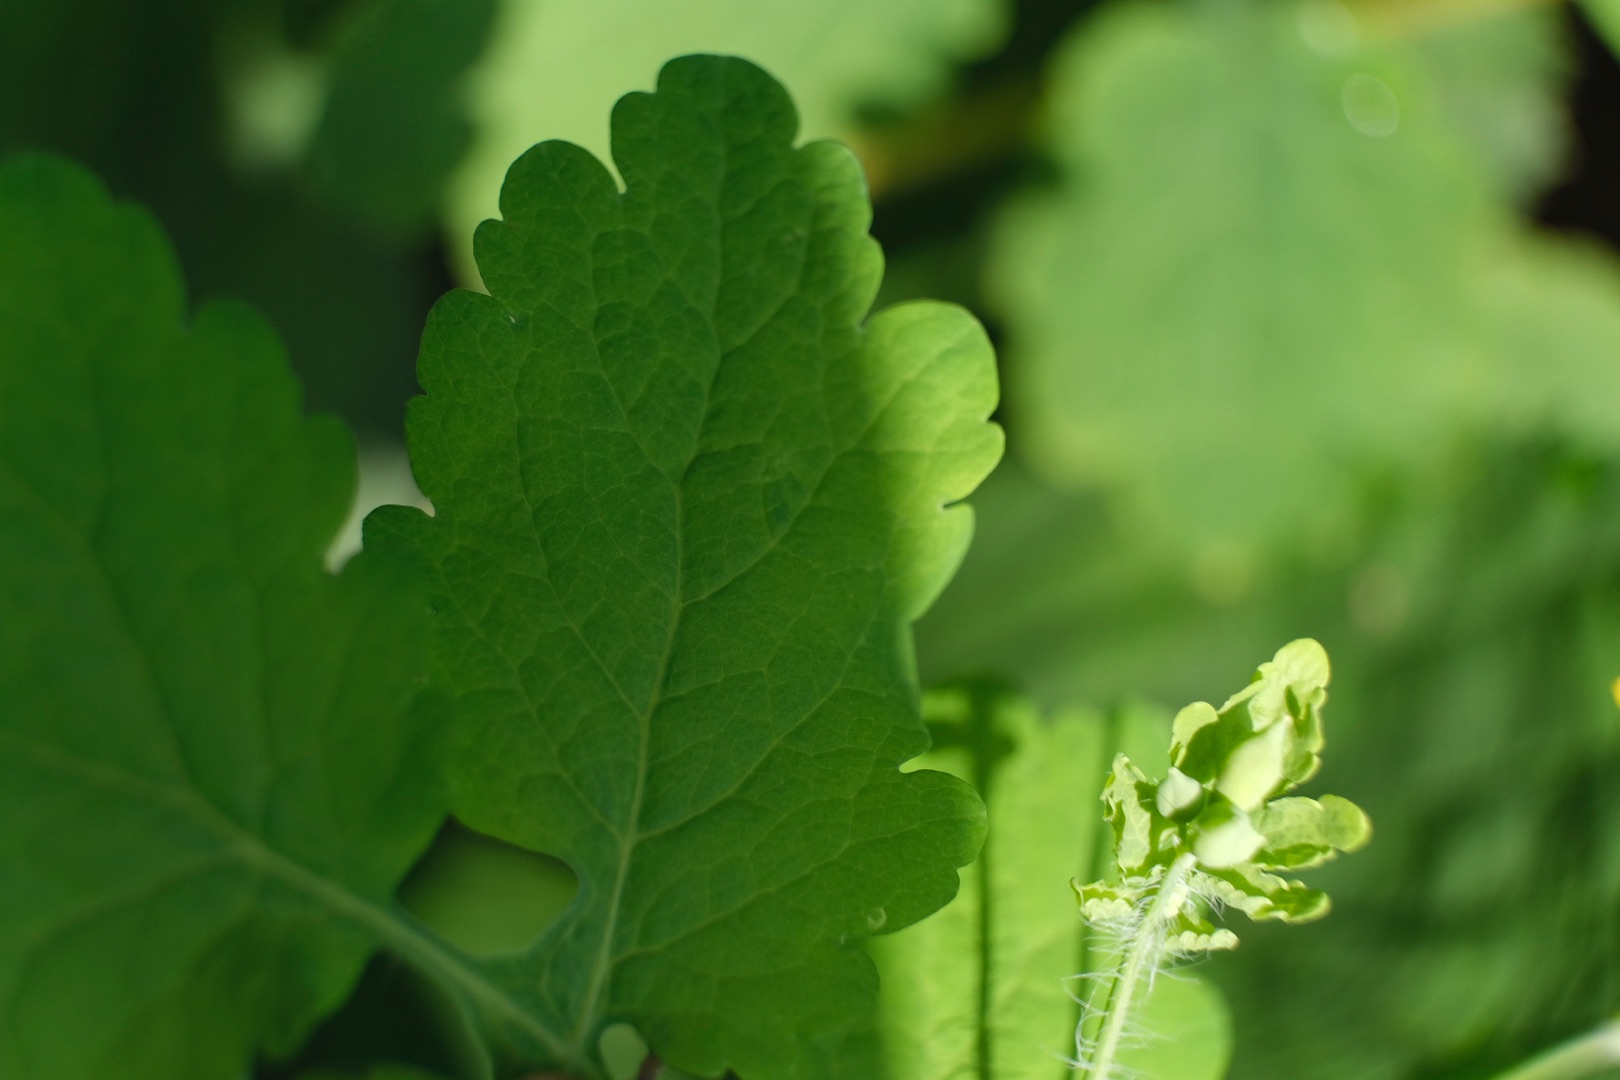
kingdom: Plantae
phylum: Tracheophyta
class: Magnoliopsida
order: Ranunculales
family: Papaveraceae
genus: Chelidonium
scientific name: Chelidonium majus
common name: Svaleurt
